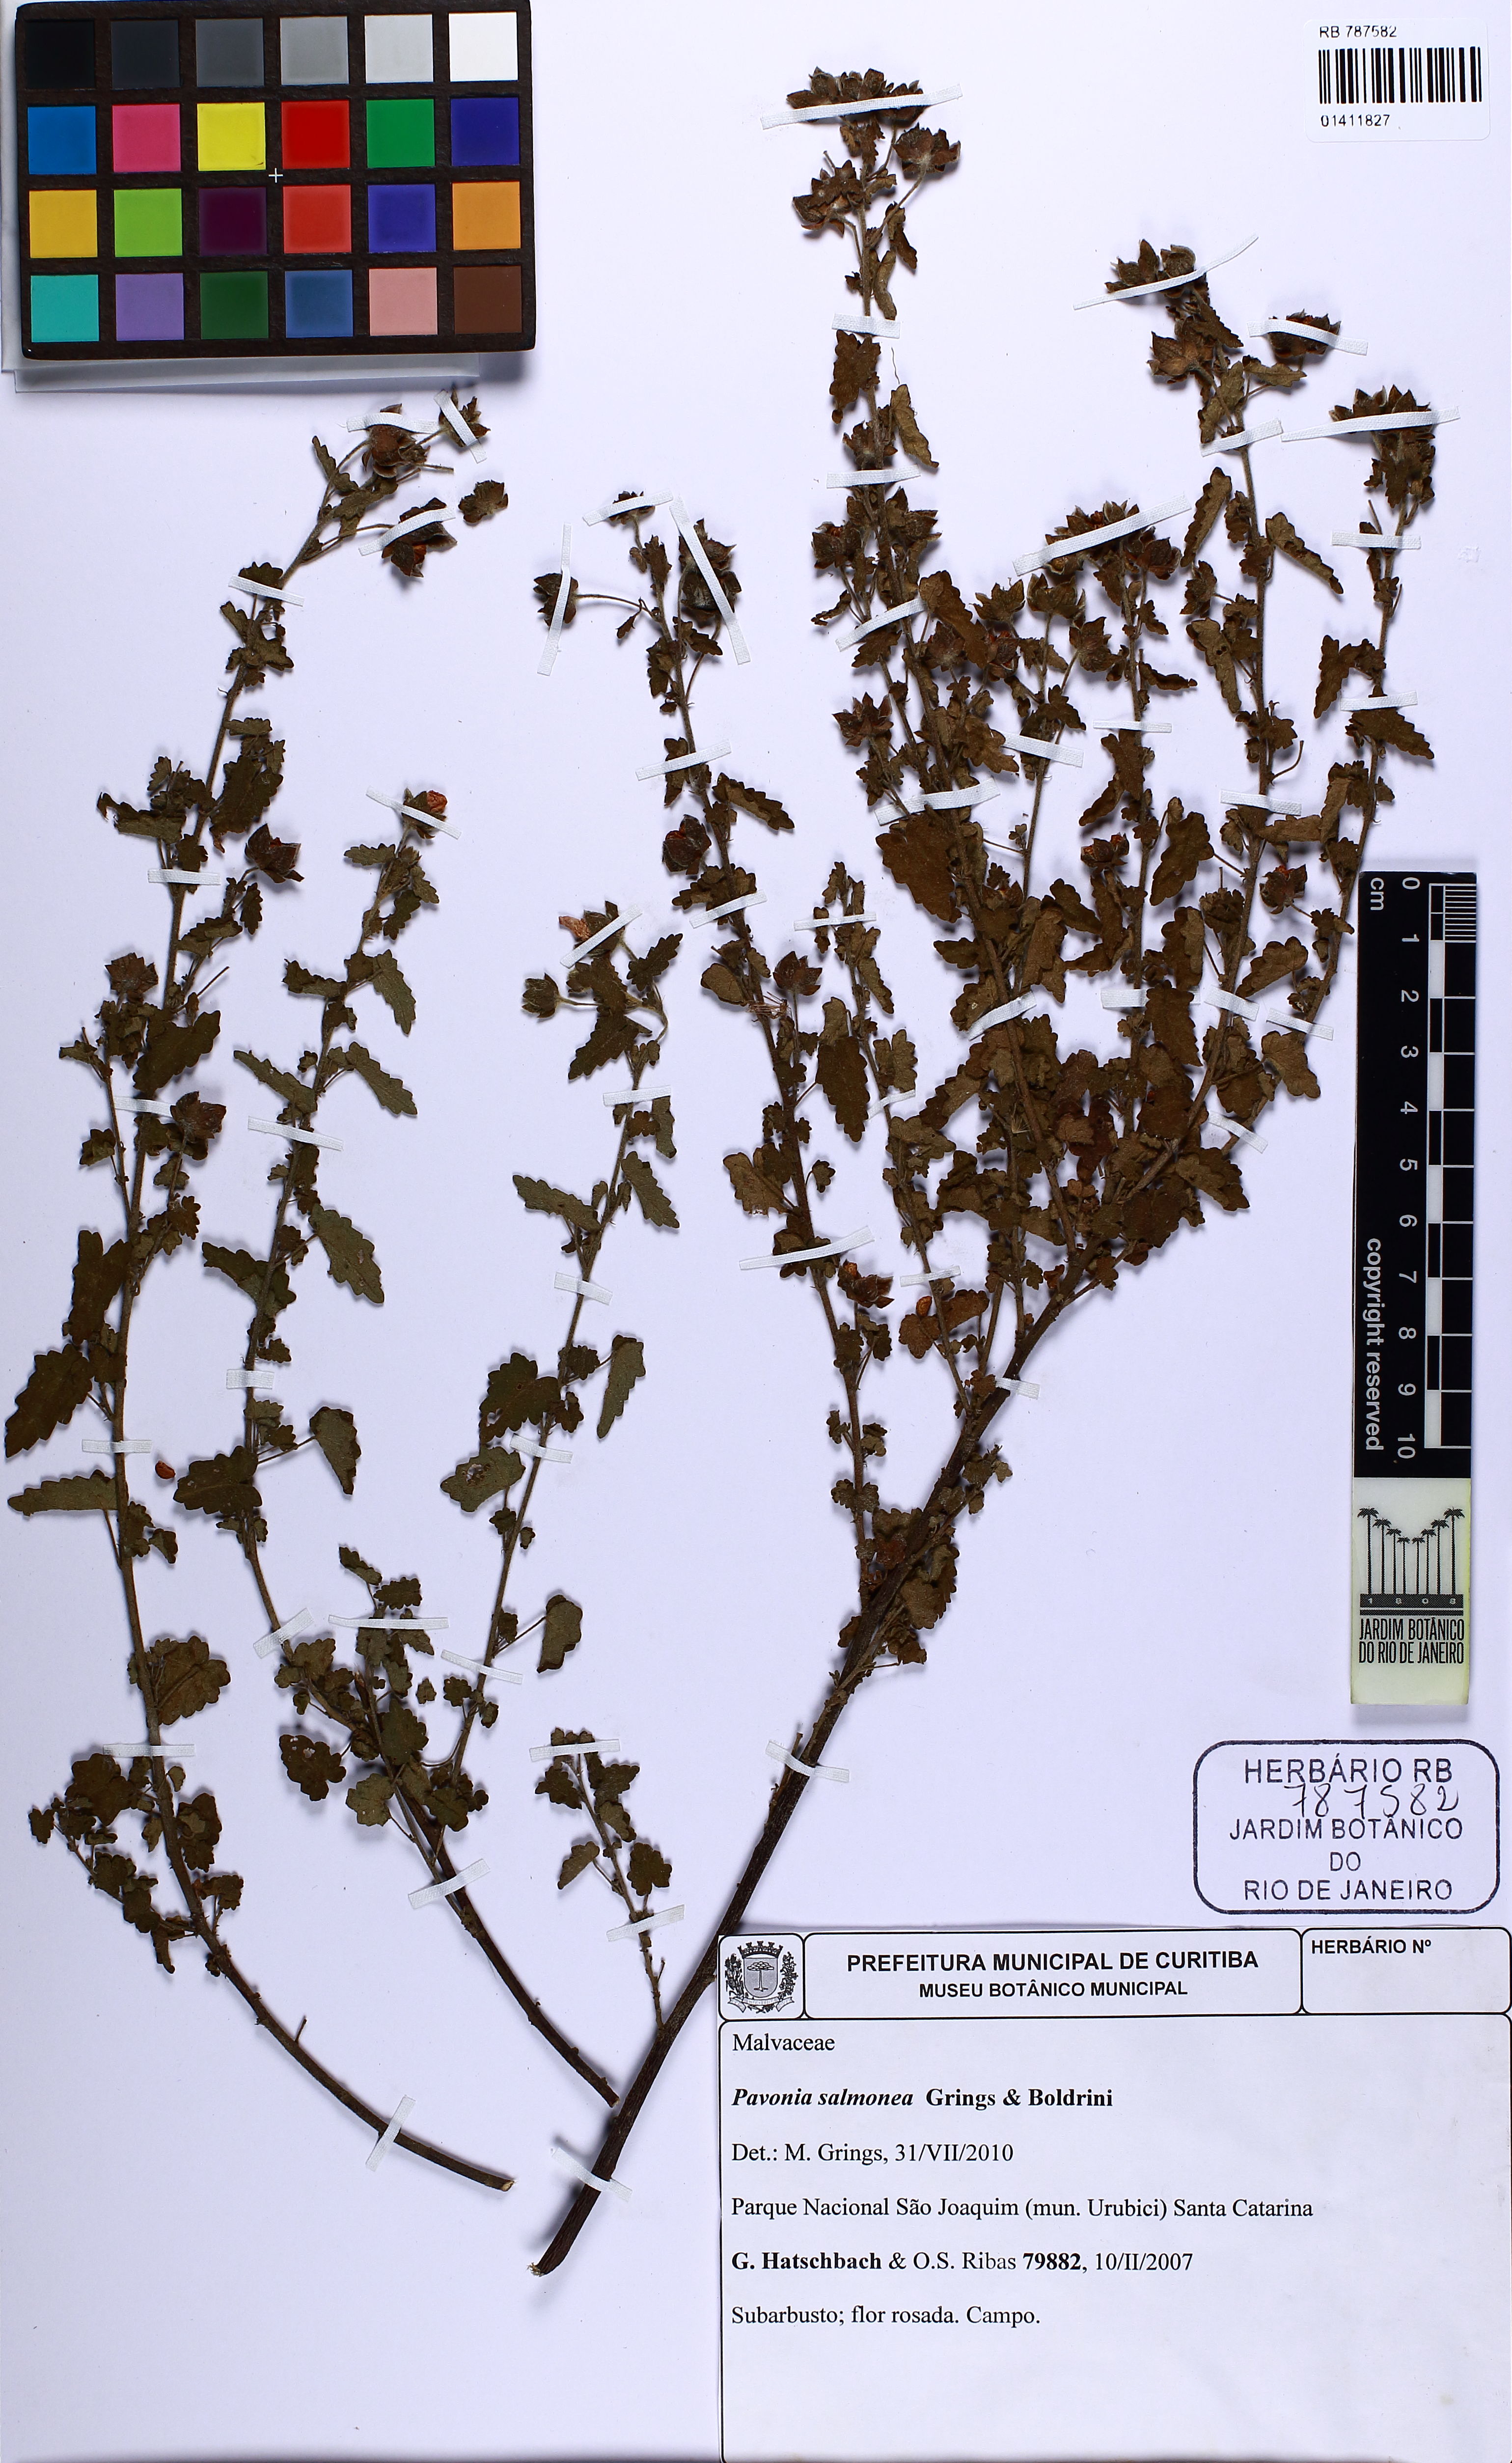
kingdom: Plantae
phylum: Tracheophyta
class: Magnoliopsida
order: Malvales
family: Malvaceae
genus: Pavonia
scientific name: Pavonia salmonea
